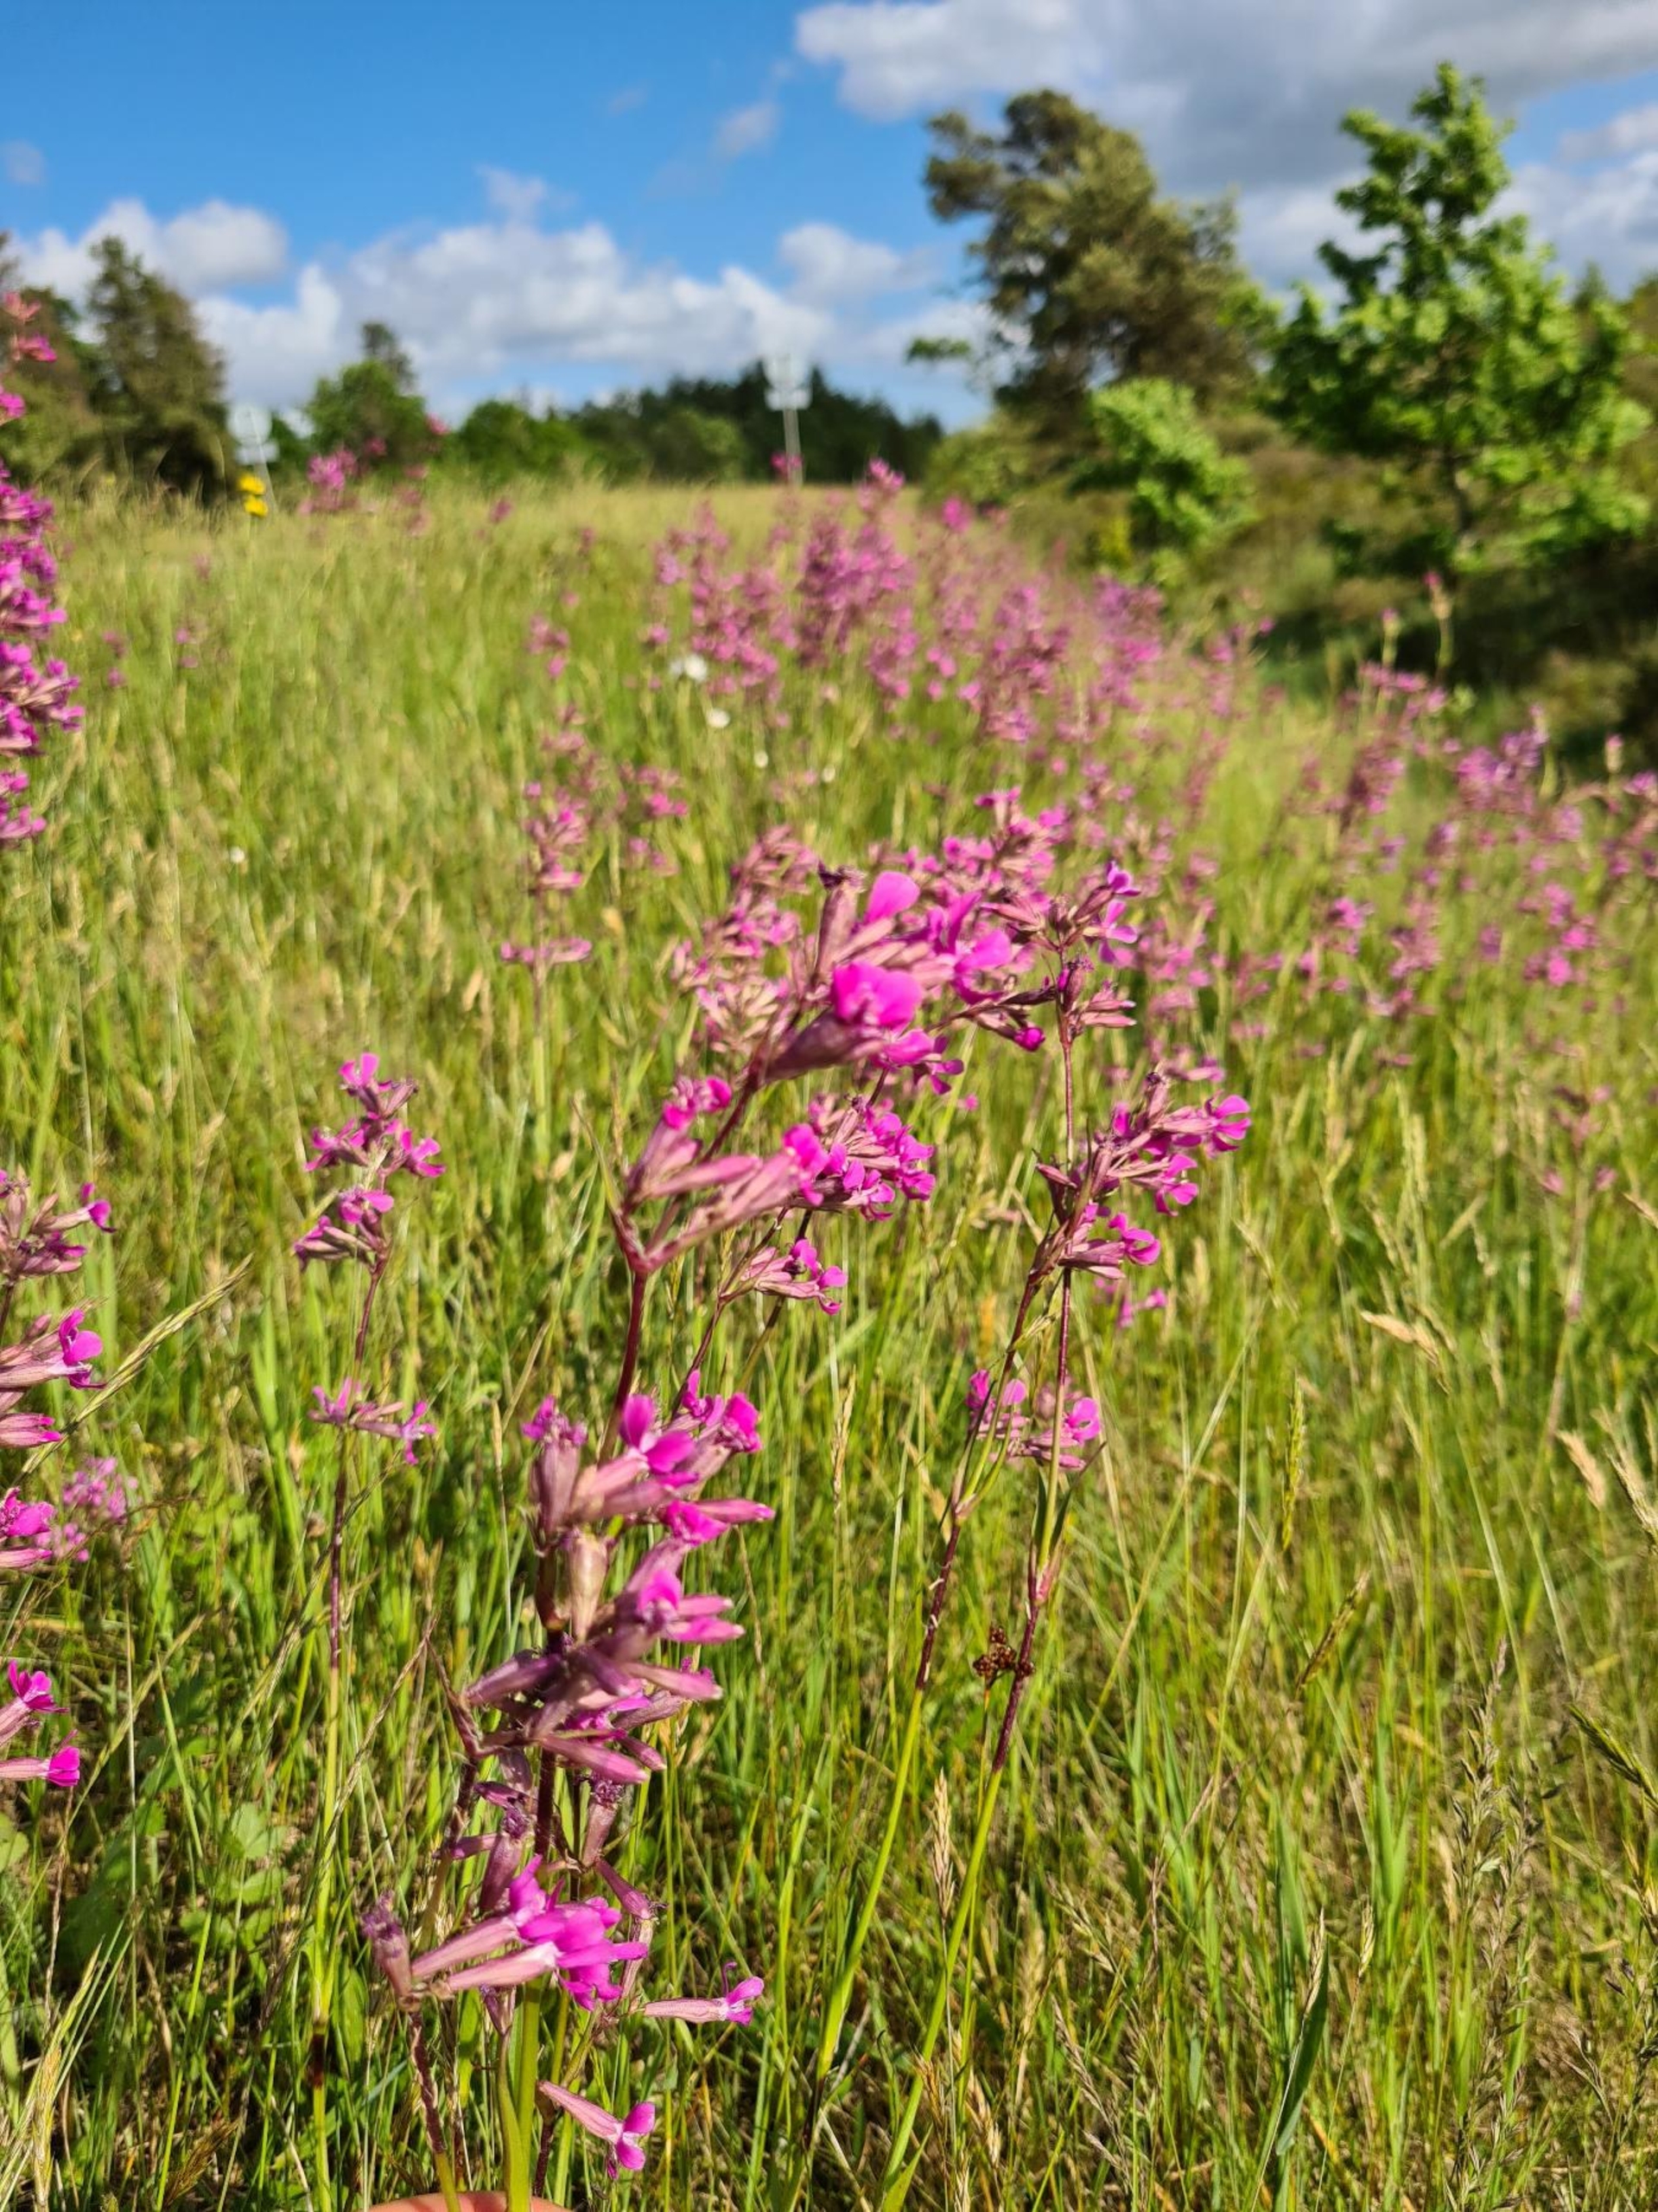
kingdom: Plantae
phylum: Tracheophyta
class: Magnoliopsida
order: Caryophyllales
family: Caryophyllaceae
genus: Viscaria
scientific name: Viscaria vulgaris
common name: Tjærenellike
